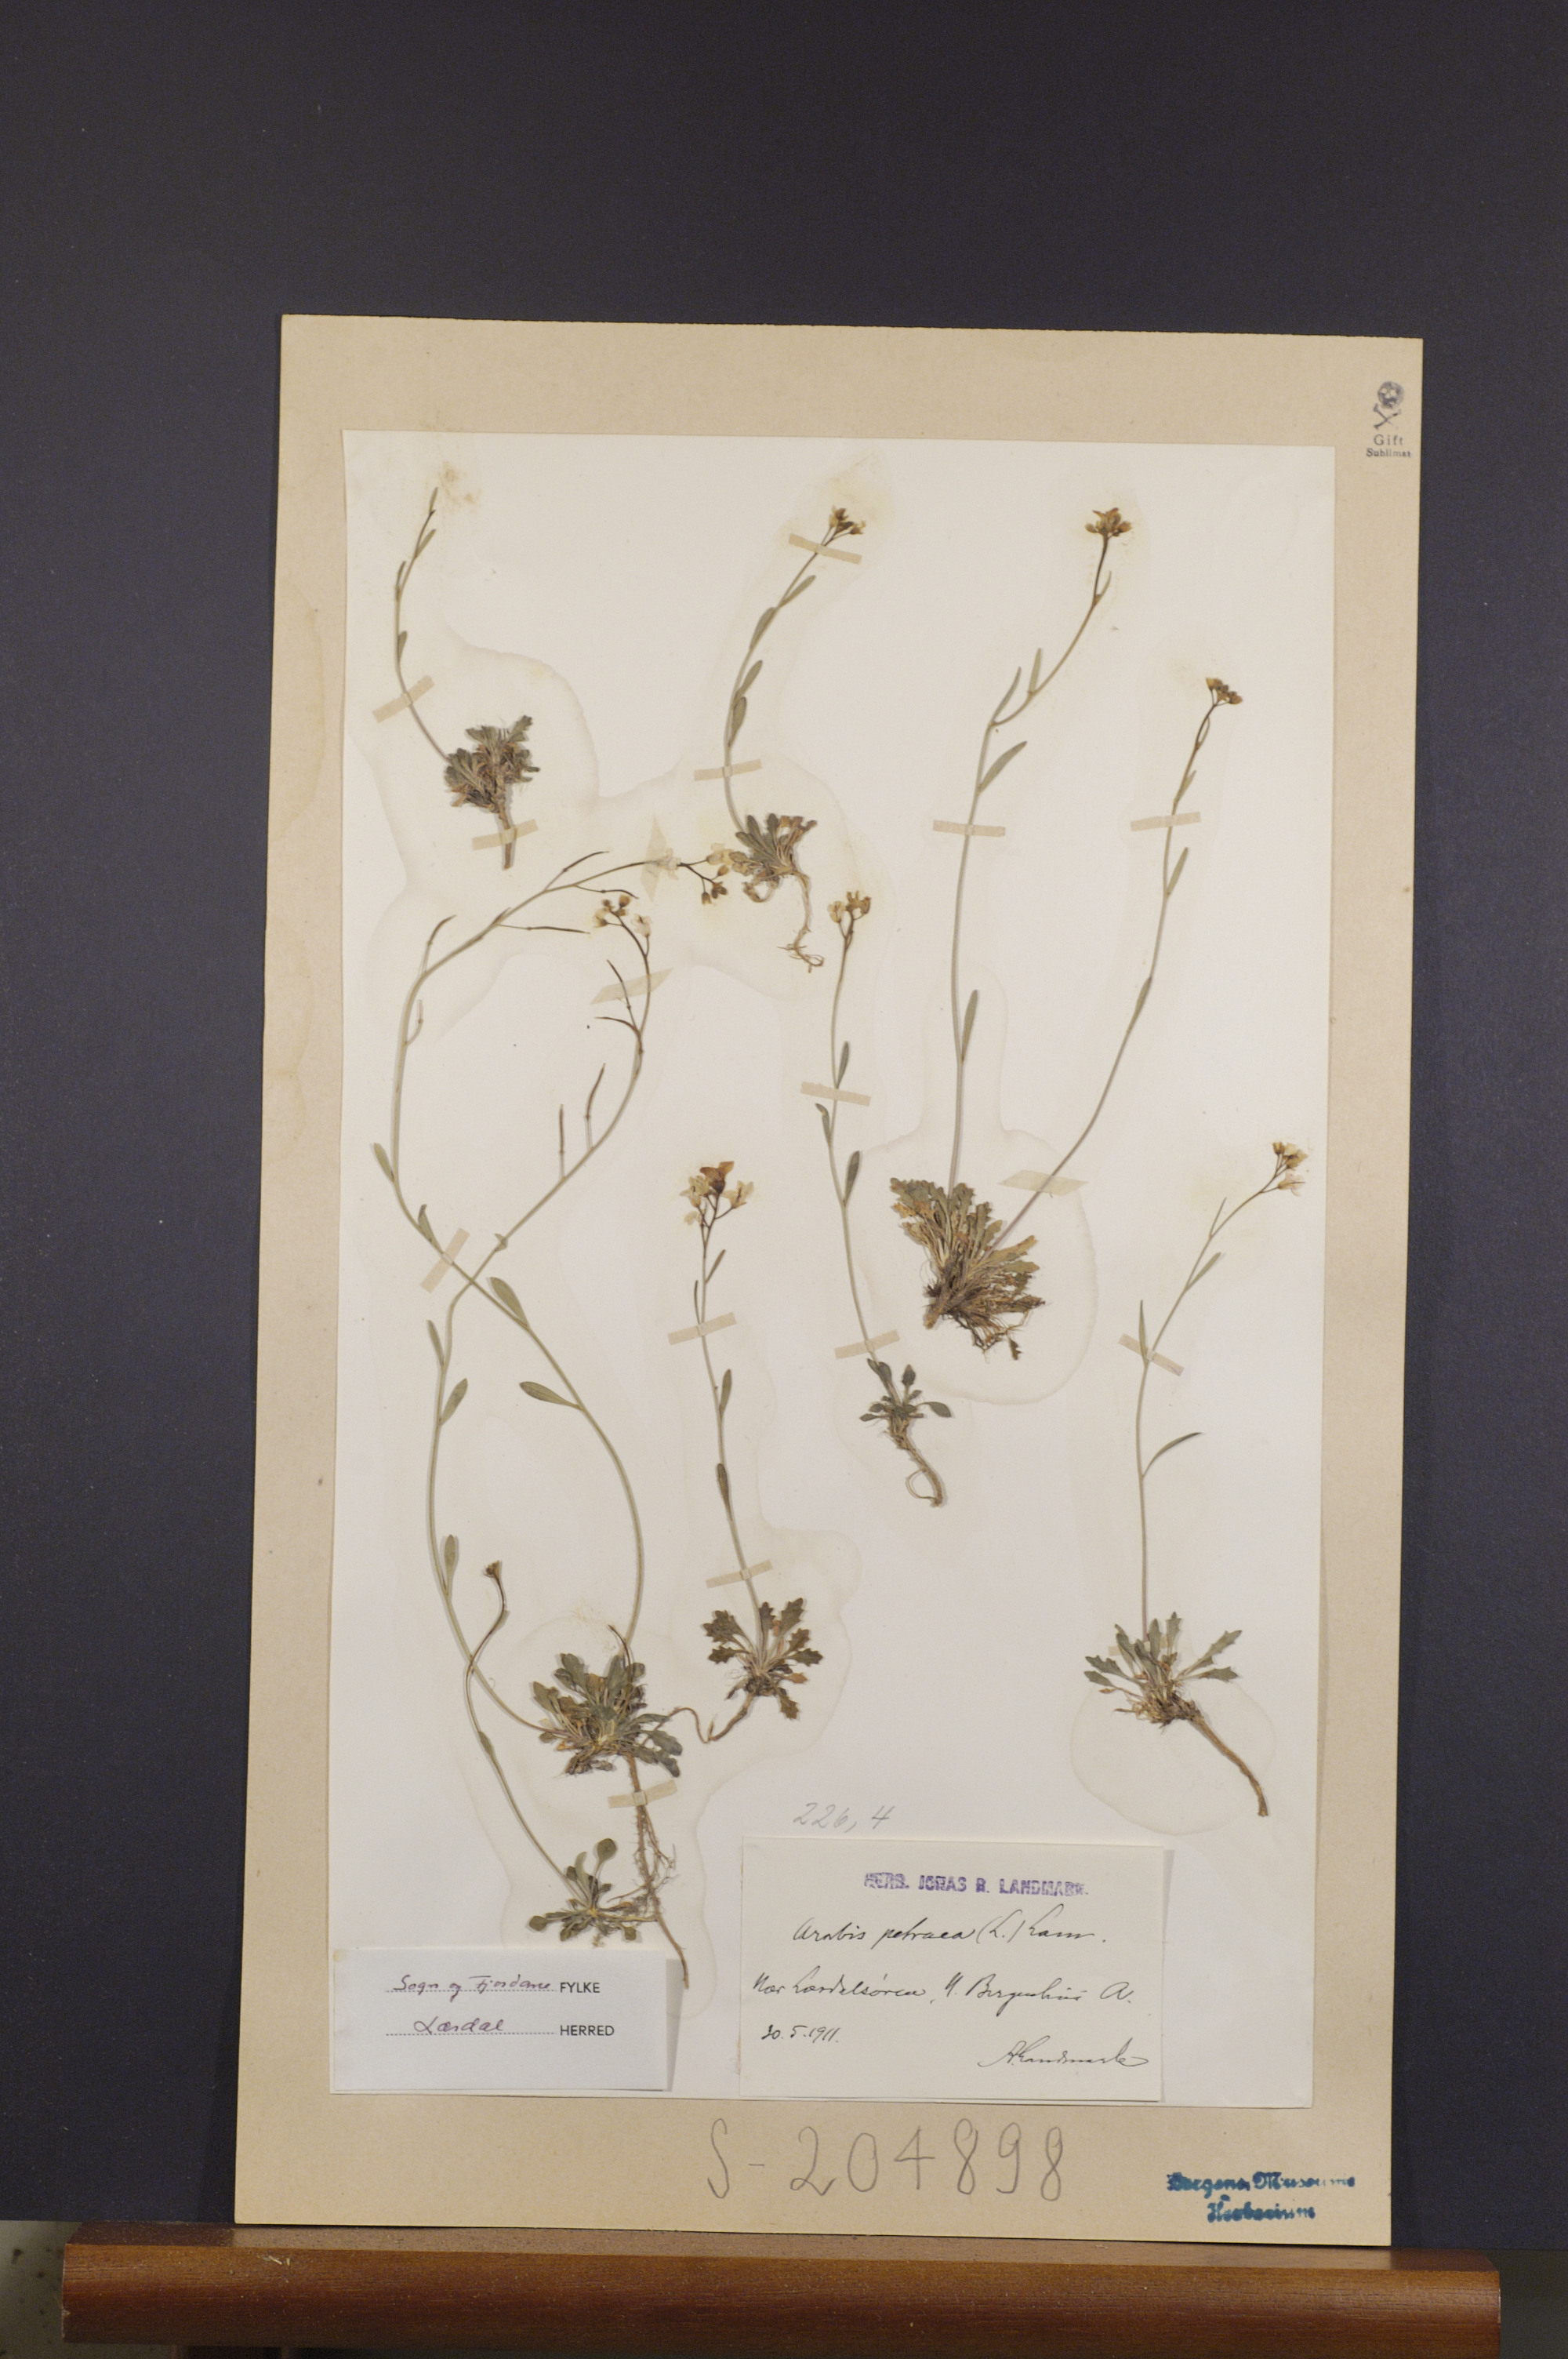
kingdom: Plantae
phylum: Tracheophyta
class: Magnoliopsida
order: Brassicales
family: Brassicaceae
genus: Arabidopsis
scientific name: Arabidopsis petraea
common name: Northern rock-cress
